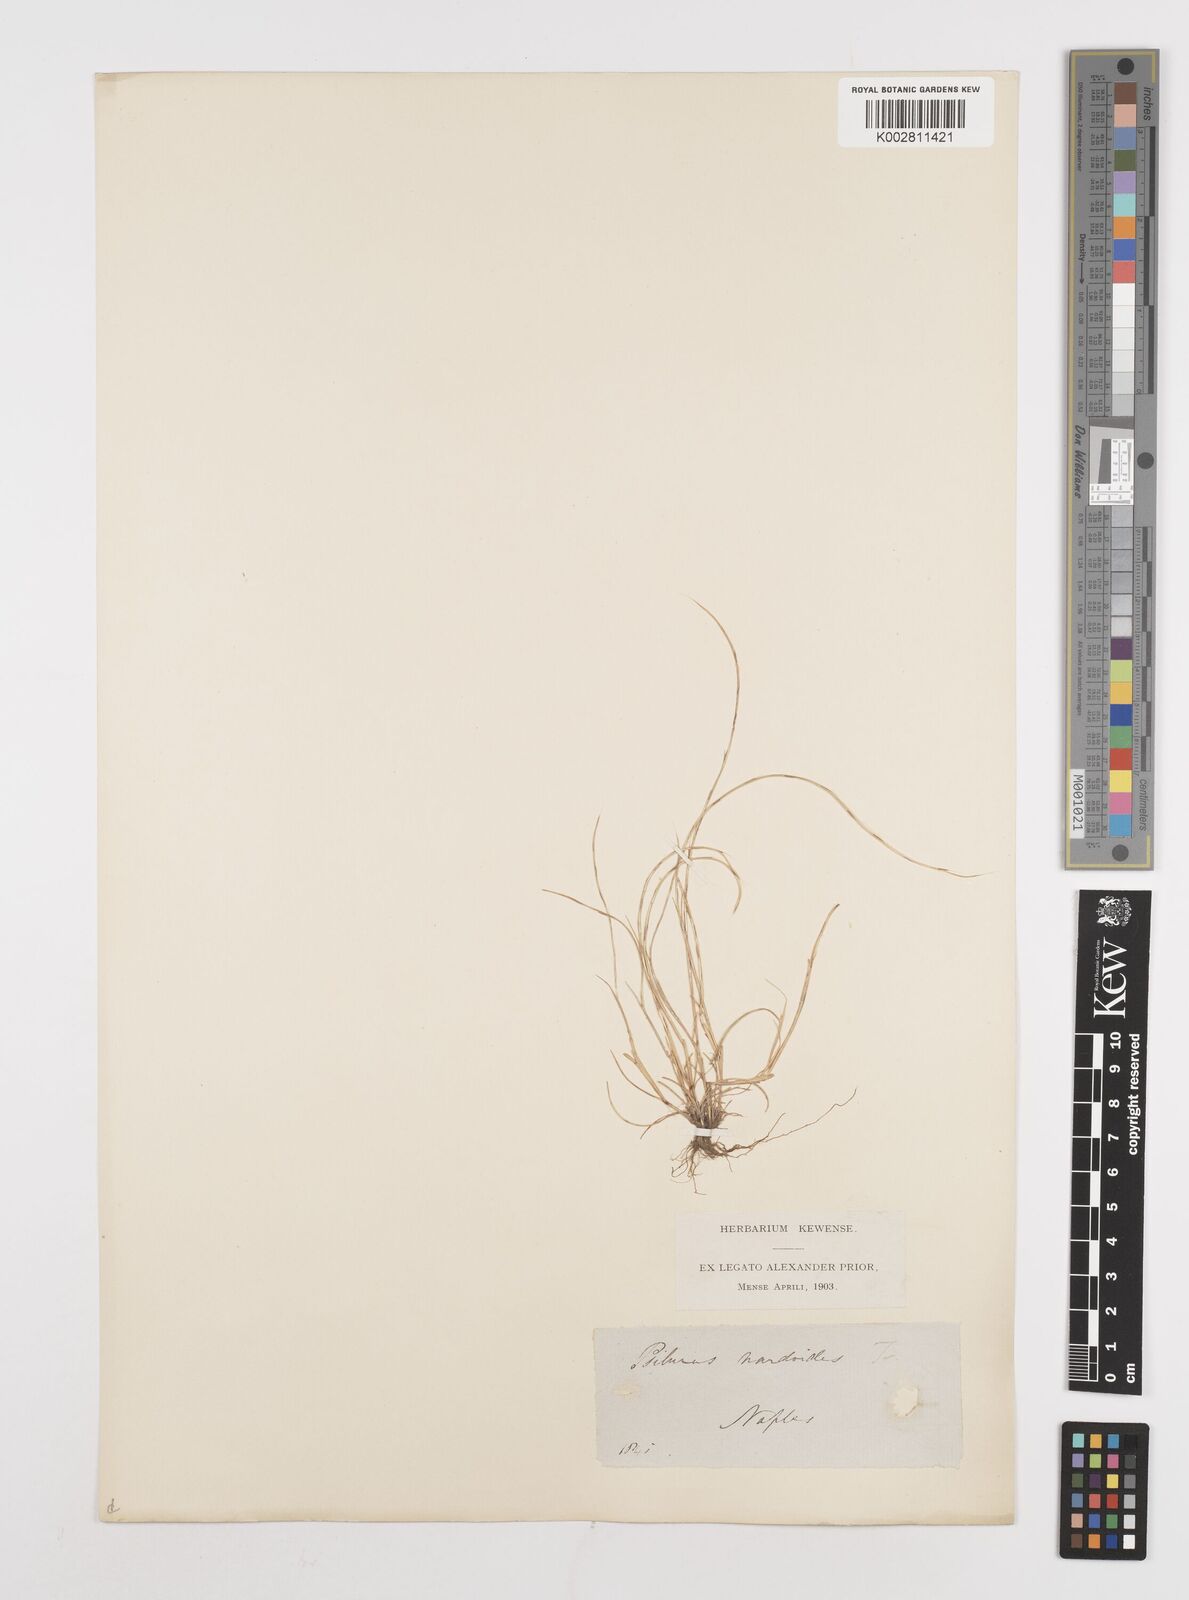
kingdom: Plantae
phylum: Tracheophyta
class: Liliopsida
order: Poales
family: Poaceae
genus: Festuca
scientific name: Festuca incurva
